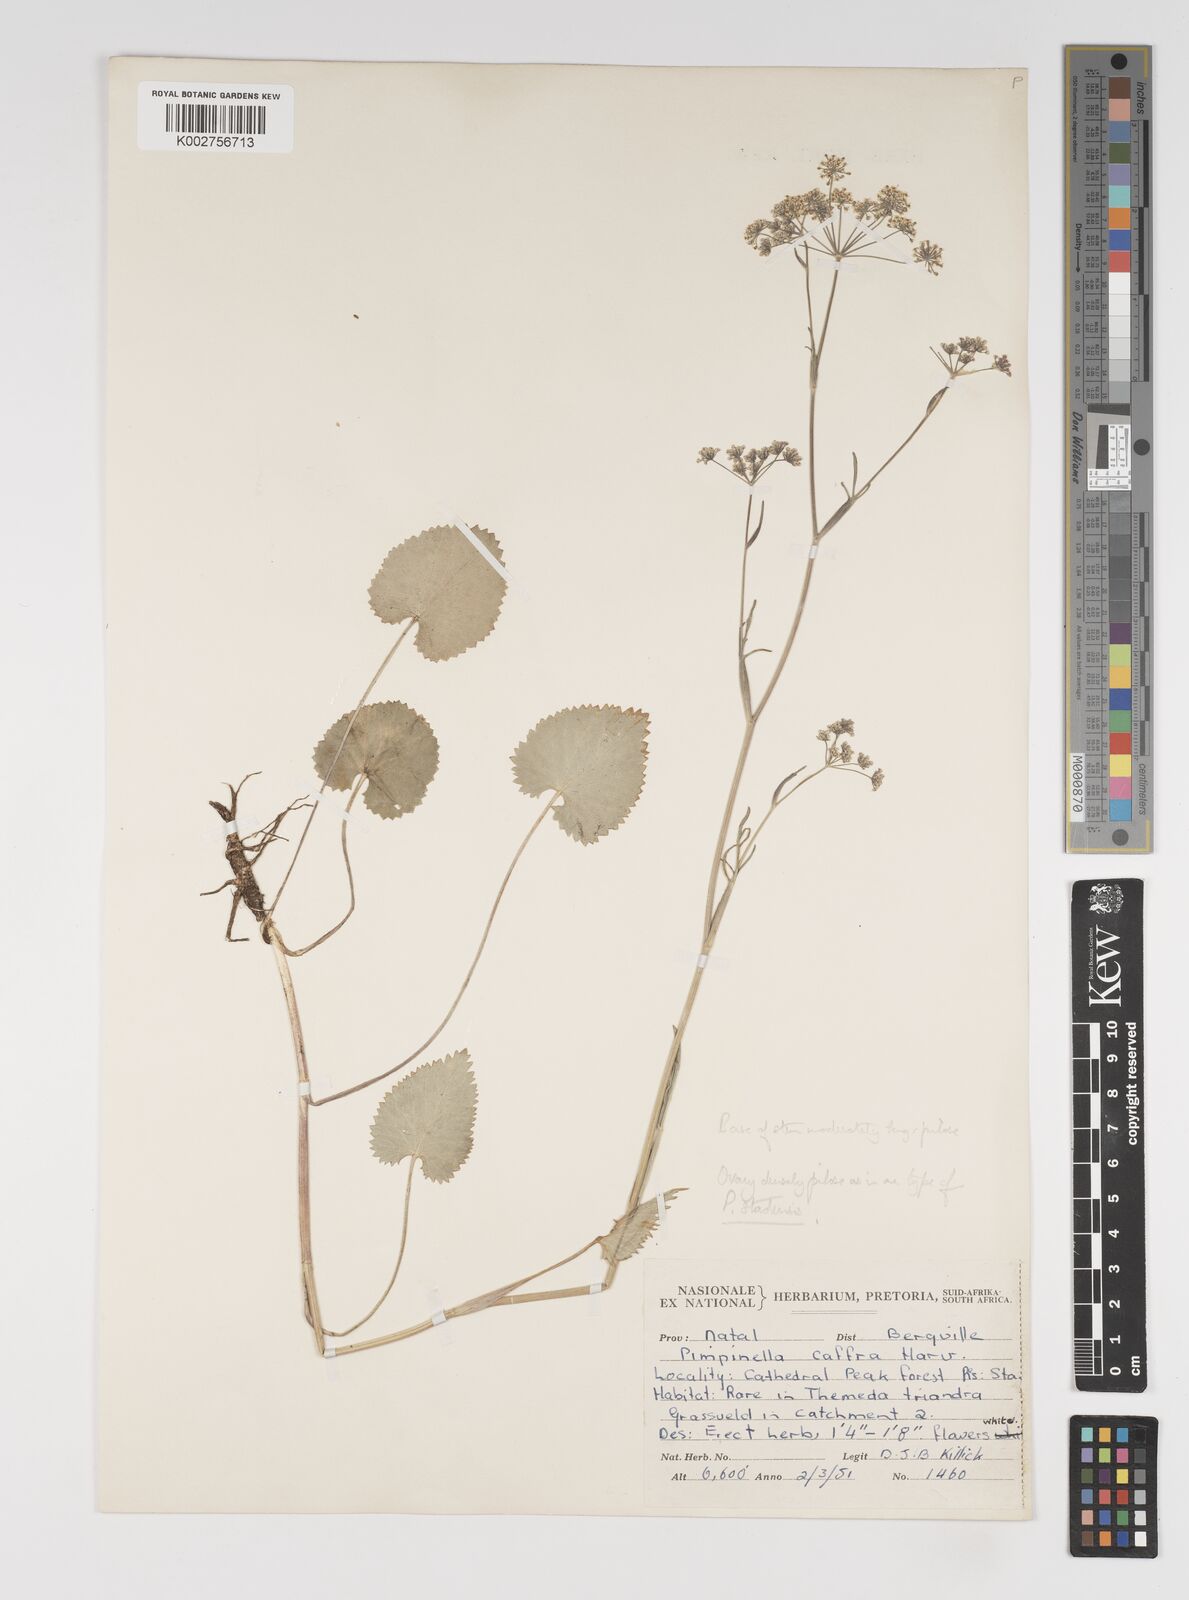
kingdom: Plantae
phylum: Tracheophyta
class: Magnoliopsida
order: Apiales
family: Apiaceae
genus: Pimpinella
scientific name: Pimpinella
